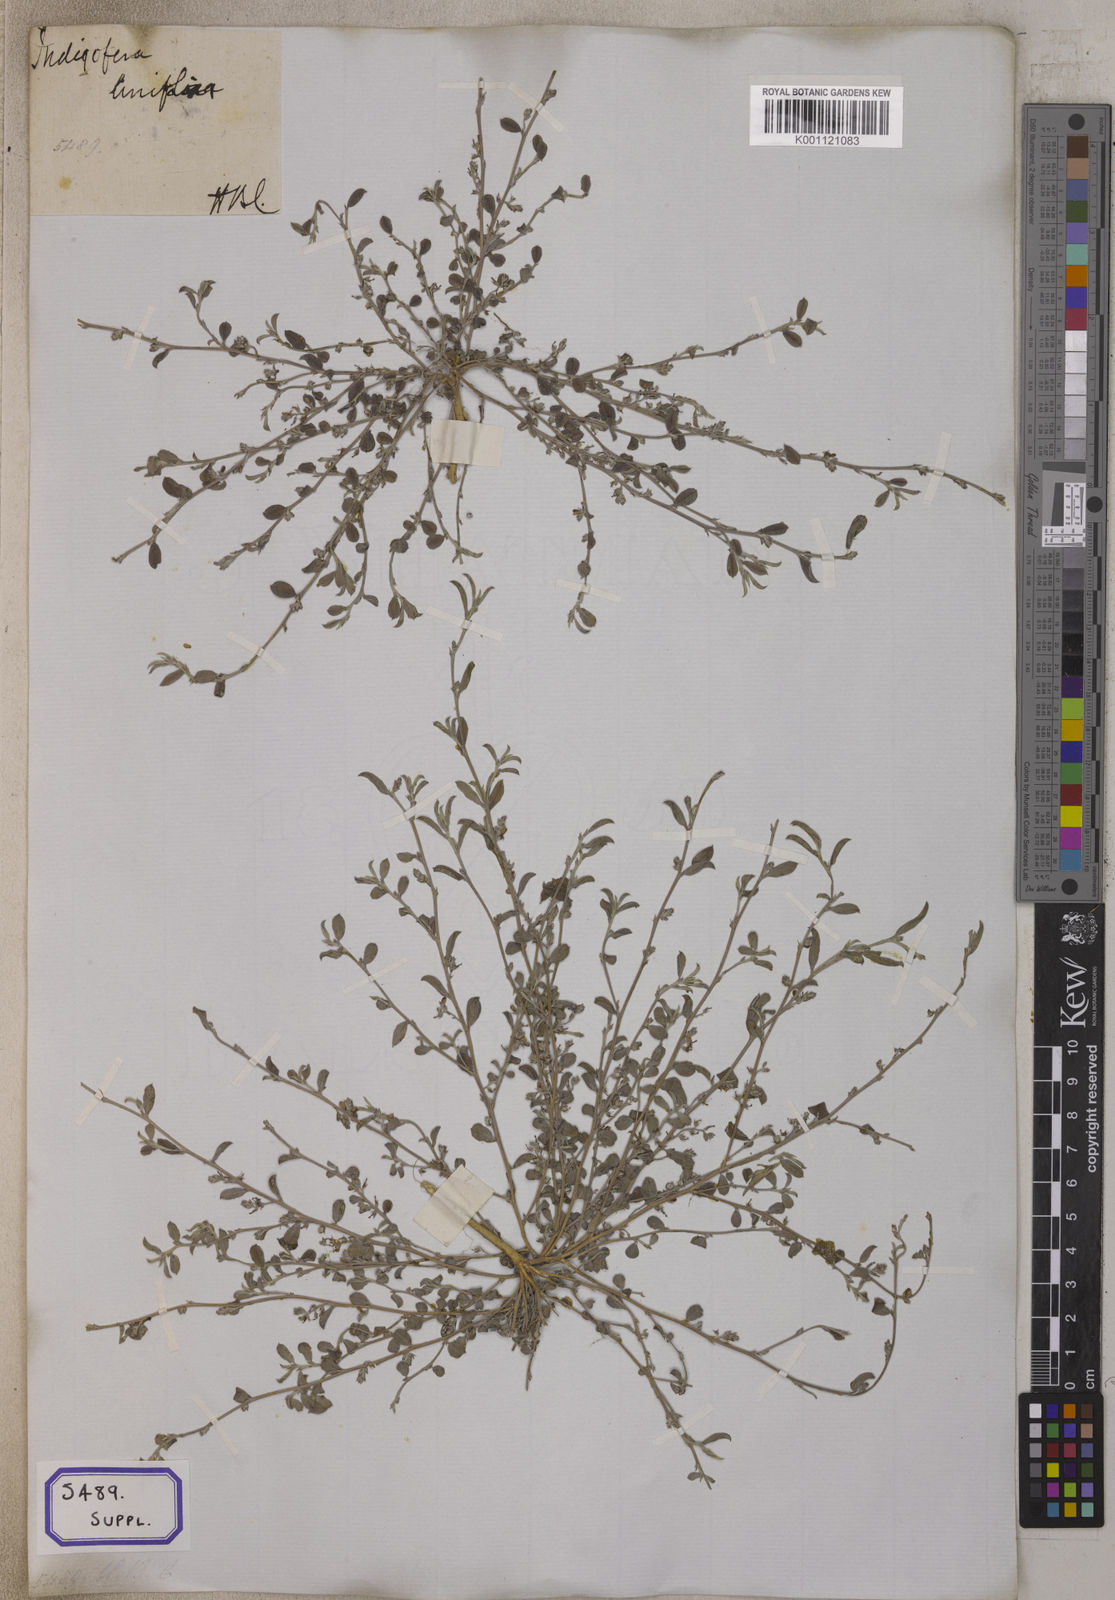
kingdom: Plantae
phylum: Tracheophyta
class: Magnoliopsida
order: Fabales
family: Fabaceae
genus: Indigofera
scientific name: Indigofera linifolia
